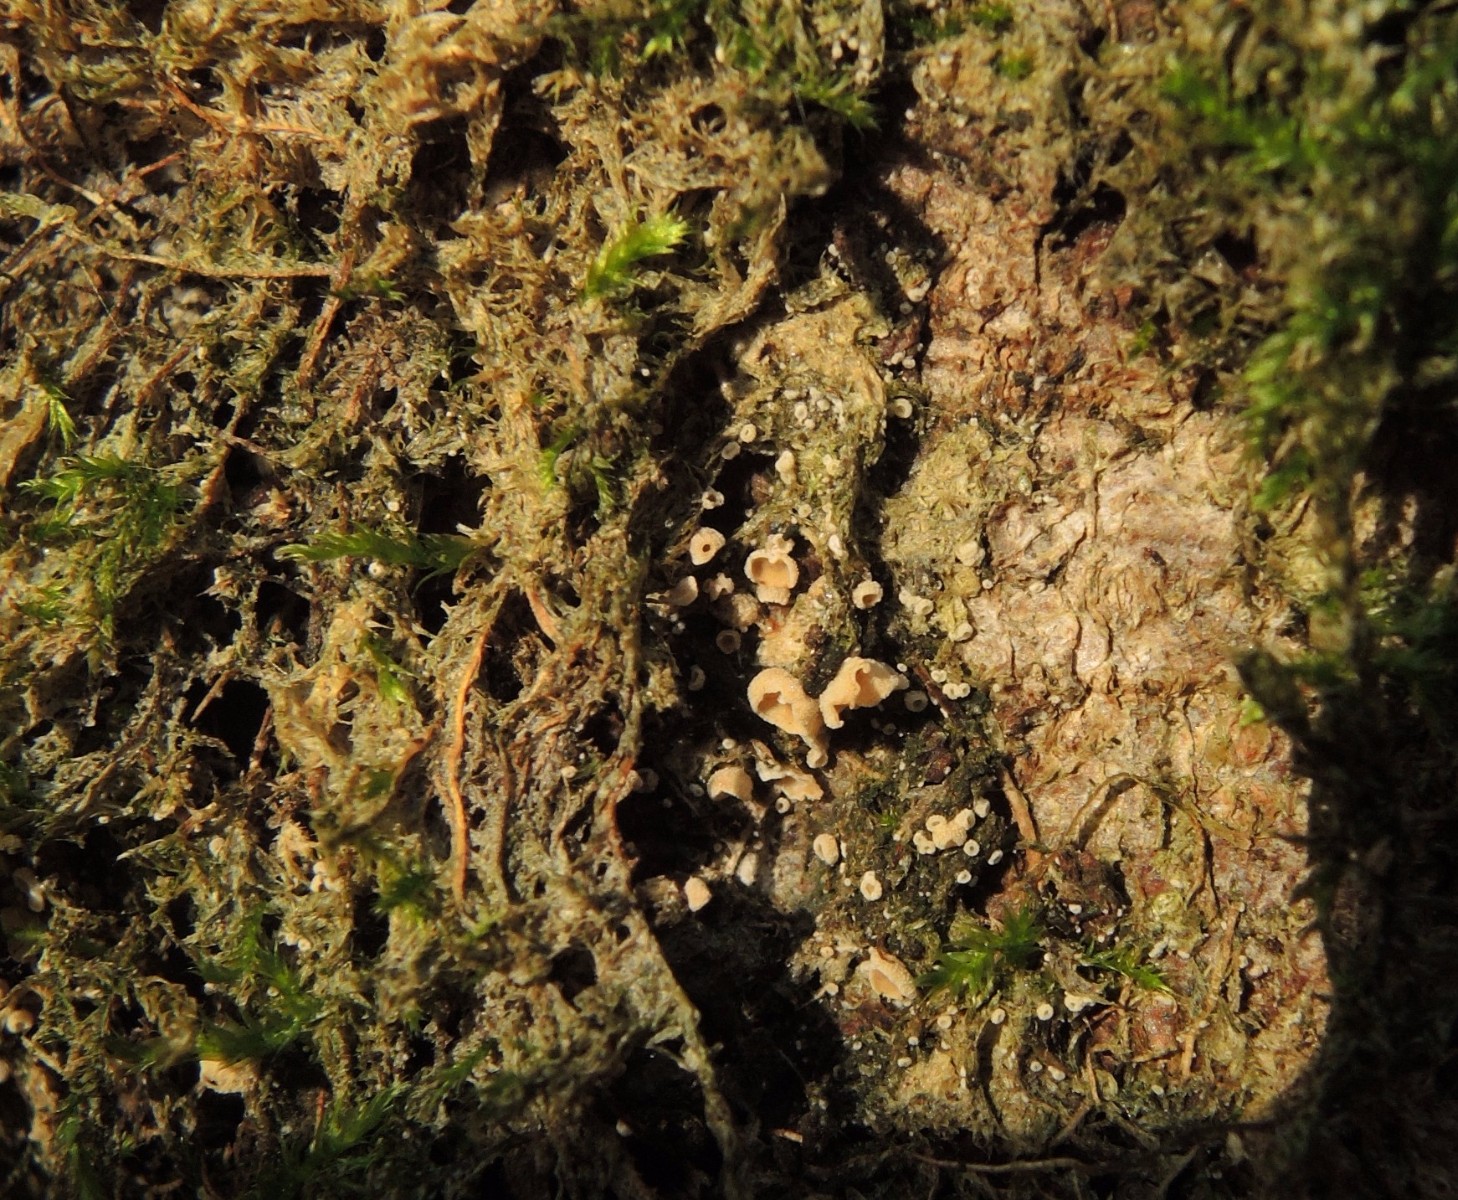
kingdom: Fungi
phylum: Basidiomycota
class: Agaricomycetes
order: Agaricales
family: Chromocyphellaceae
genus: Chromocyphella
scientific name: Chromocyphella muscicola
